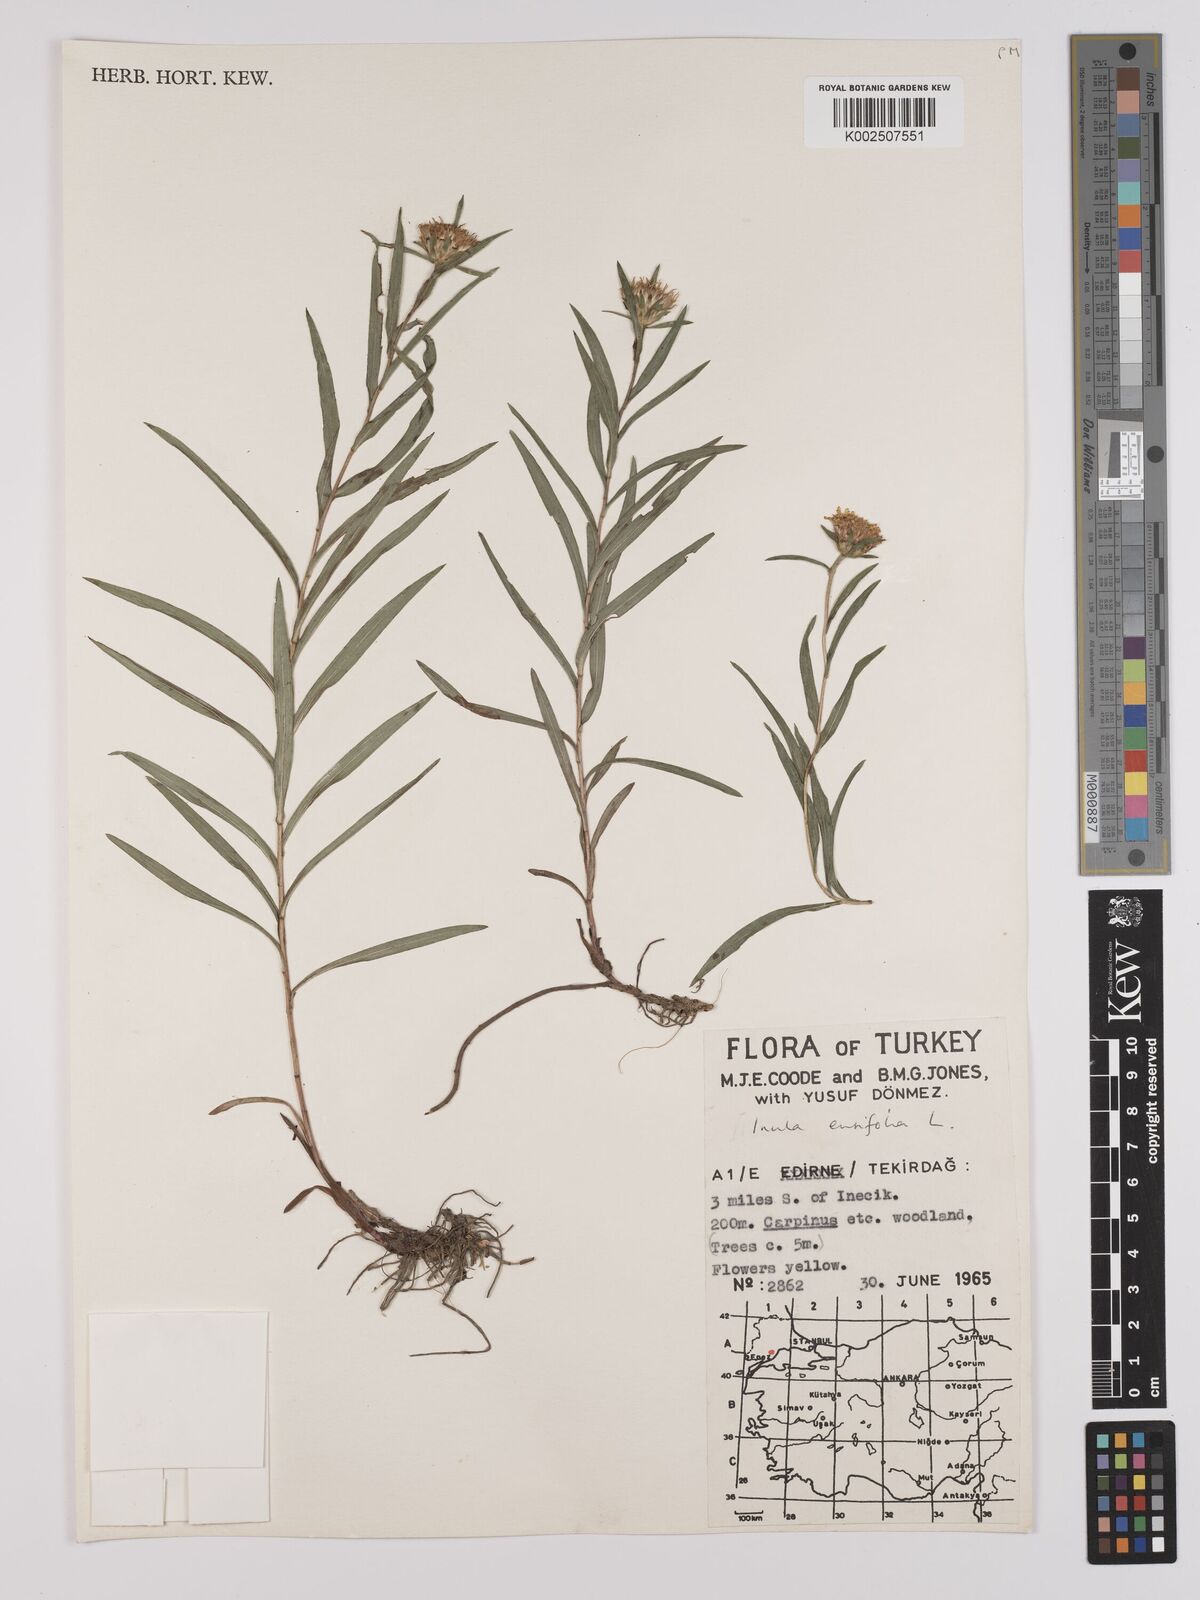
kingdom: Plantae
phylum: Tracheophyta
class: Magnoliopsida
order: Asterales
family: Asteraceae
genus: Pentanema
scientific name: Pentanema ensifolium
